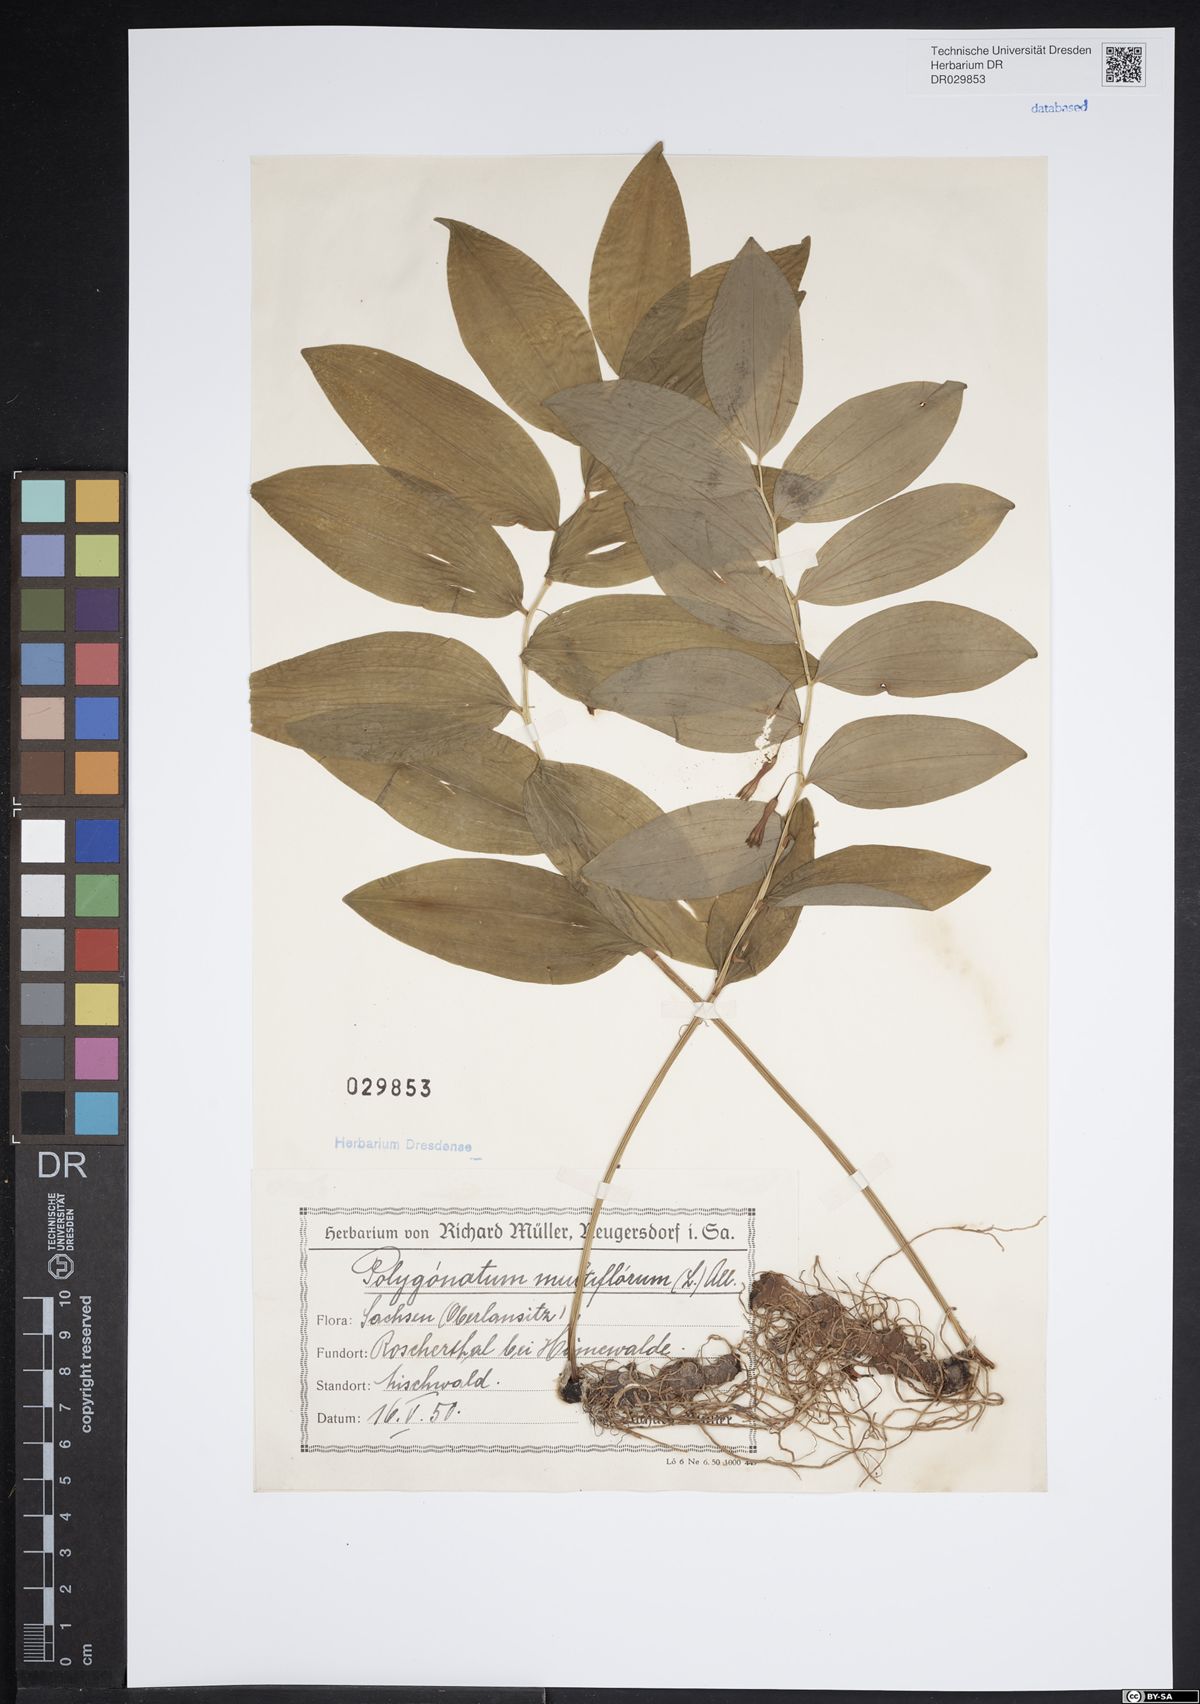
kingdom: Plantae
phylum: Tracheophyta
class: Liliopsida
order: Asparagales
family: Asparagaceae
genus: Polygonatum
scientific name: Polygonatum odoratum
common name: Angular solomon's-seal
